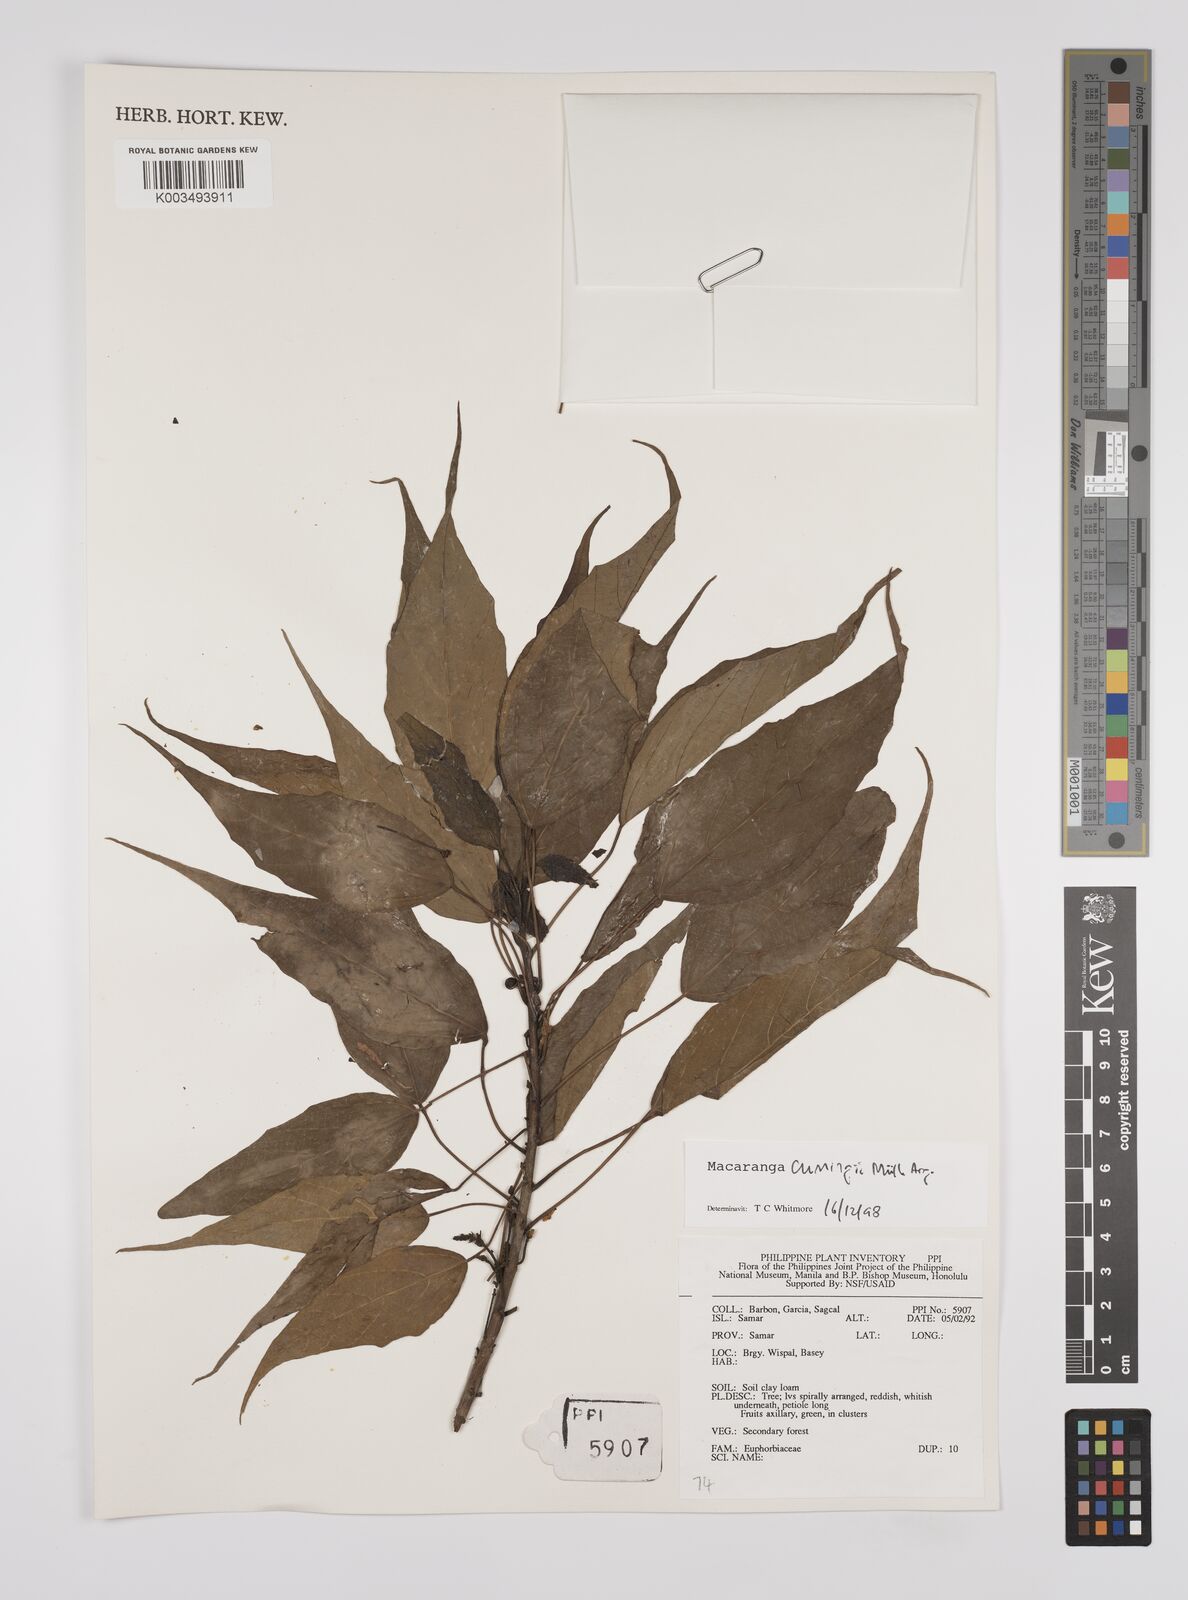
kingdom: Plantae
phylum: Tracheophyta
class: Magnoliopsida
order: Malpighiales
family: Euphorbiaceae
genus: Macaranga
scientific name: Macaranga cumingii
